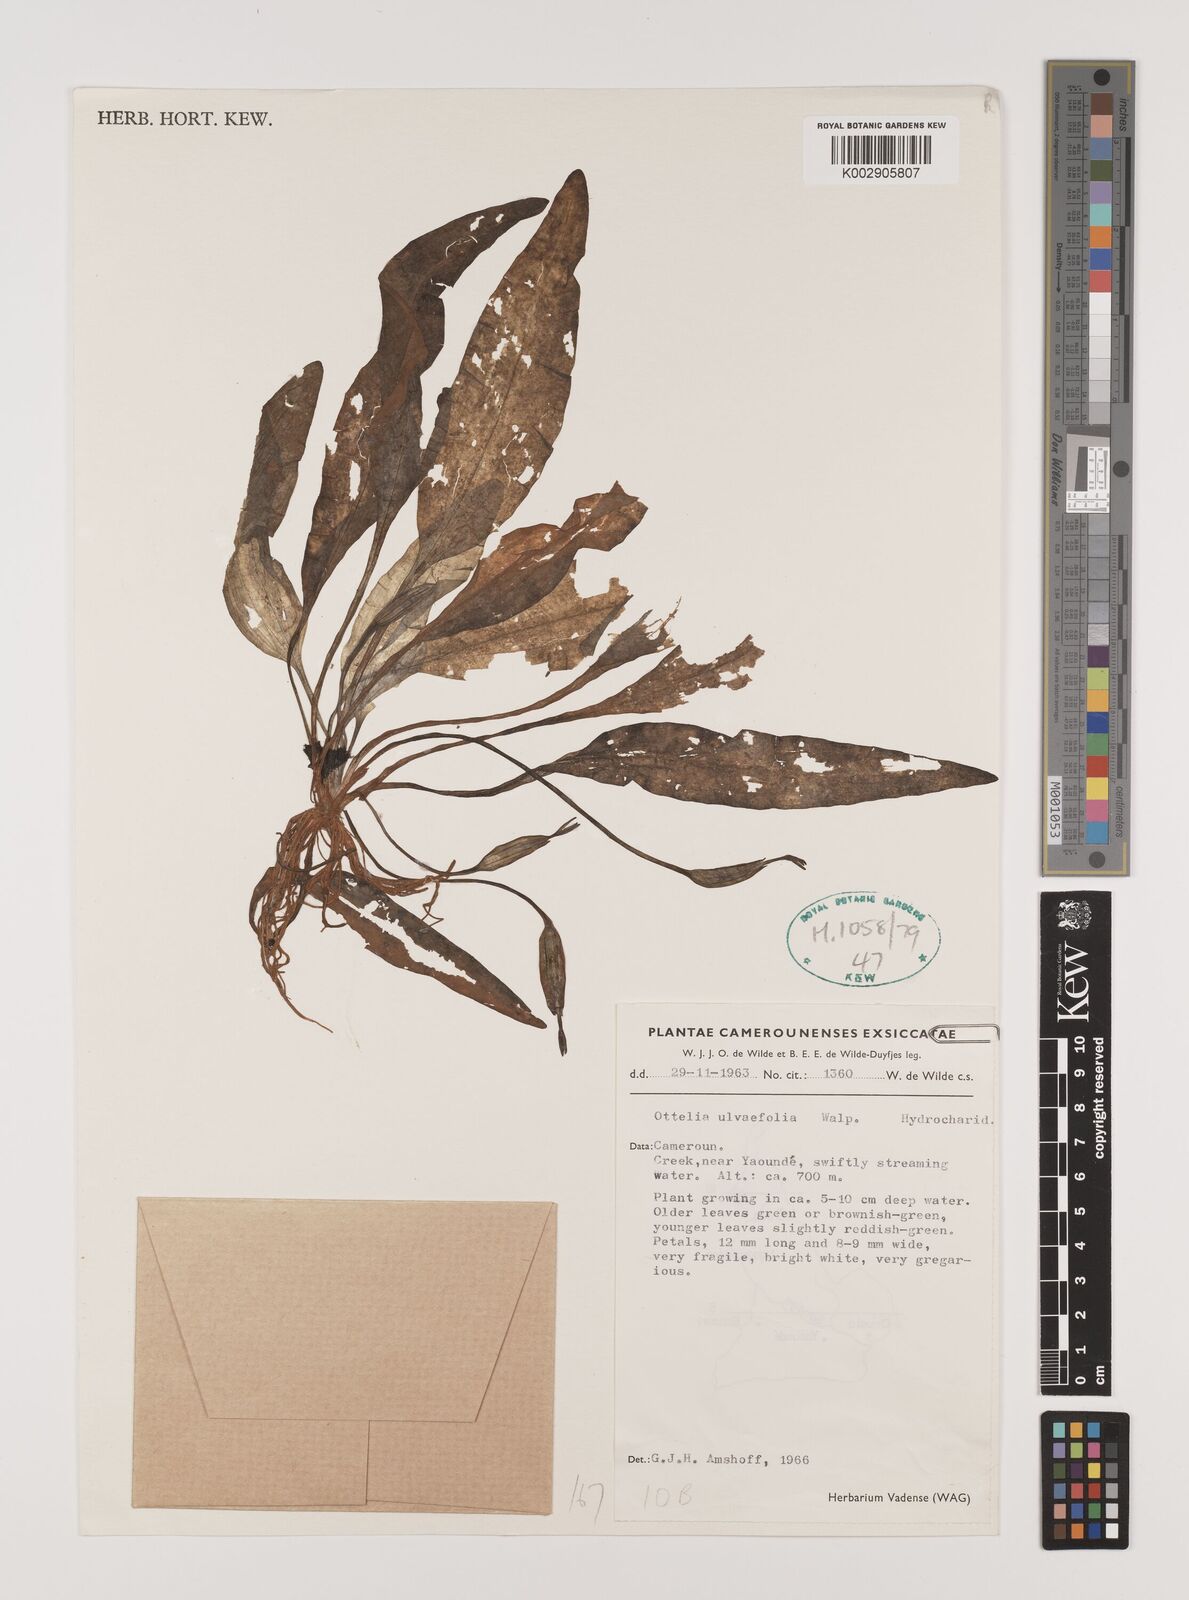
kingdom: Plantae
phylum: Tracheophyta
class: Liliopsida
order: Alismatales
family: Hydrocharitaceae
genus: Ottelia
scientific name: Ottelia ulvifolia
